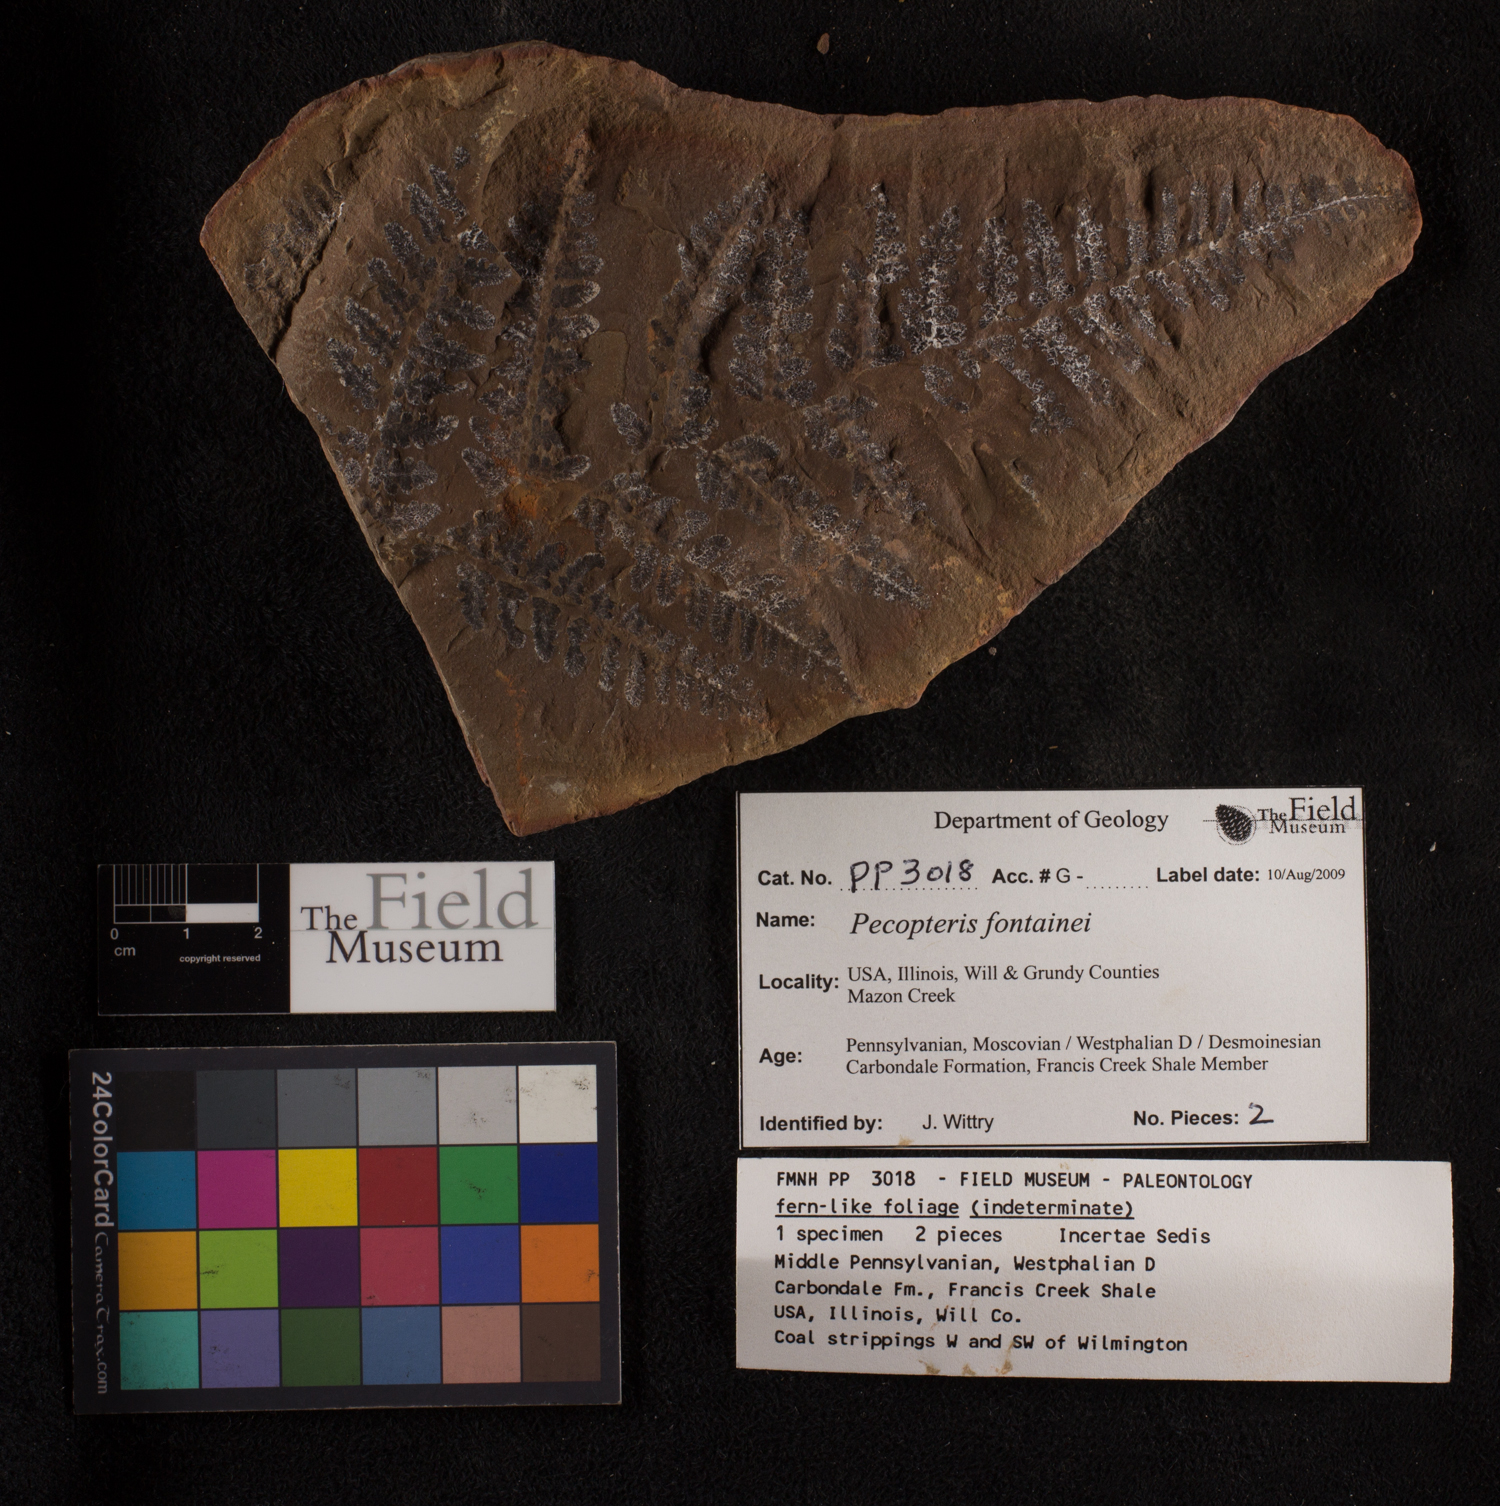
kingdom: Plantae
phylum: Tracheophyta
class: Polypodiopsida
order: Marattiales
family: Asterothecaceae
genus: Pecopteris
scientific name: Pecopteris
